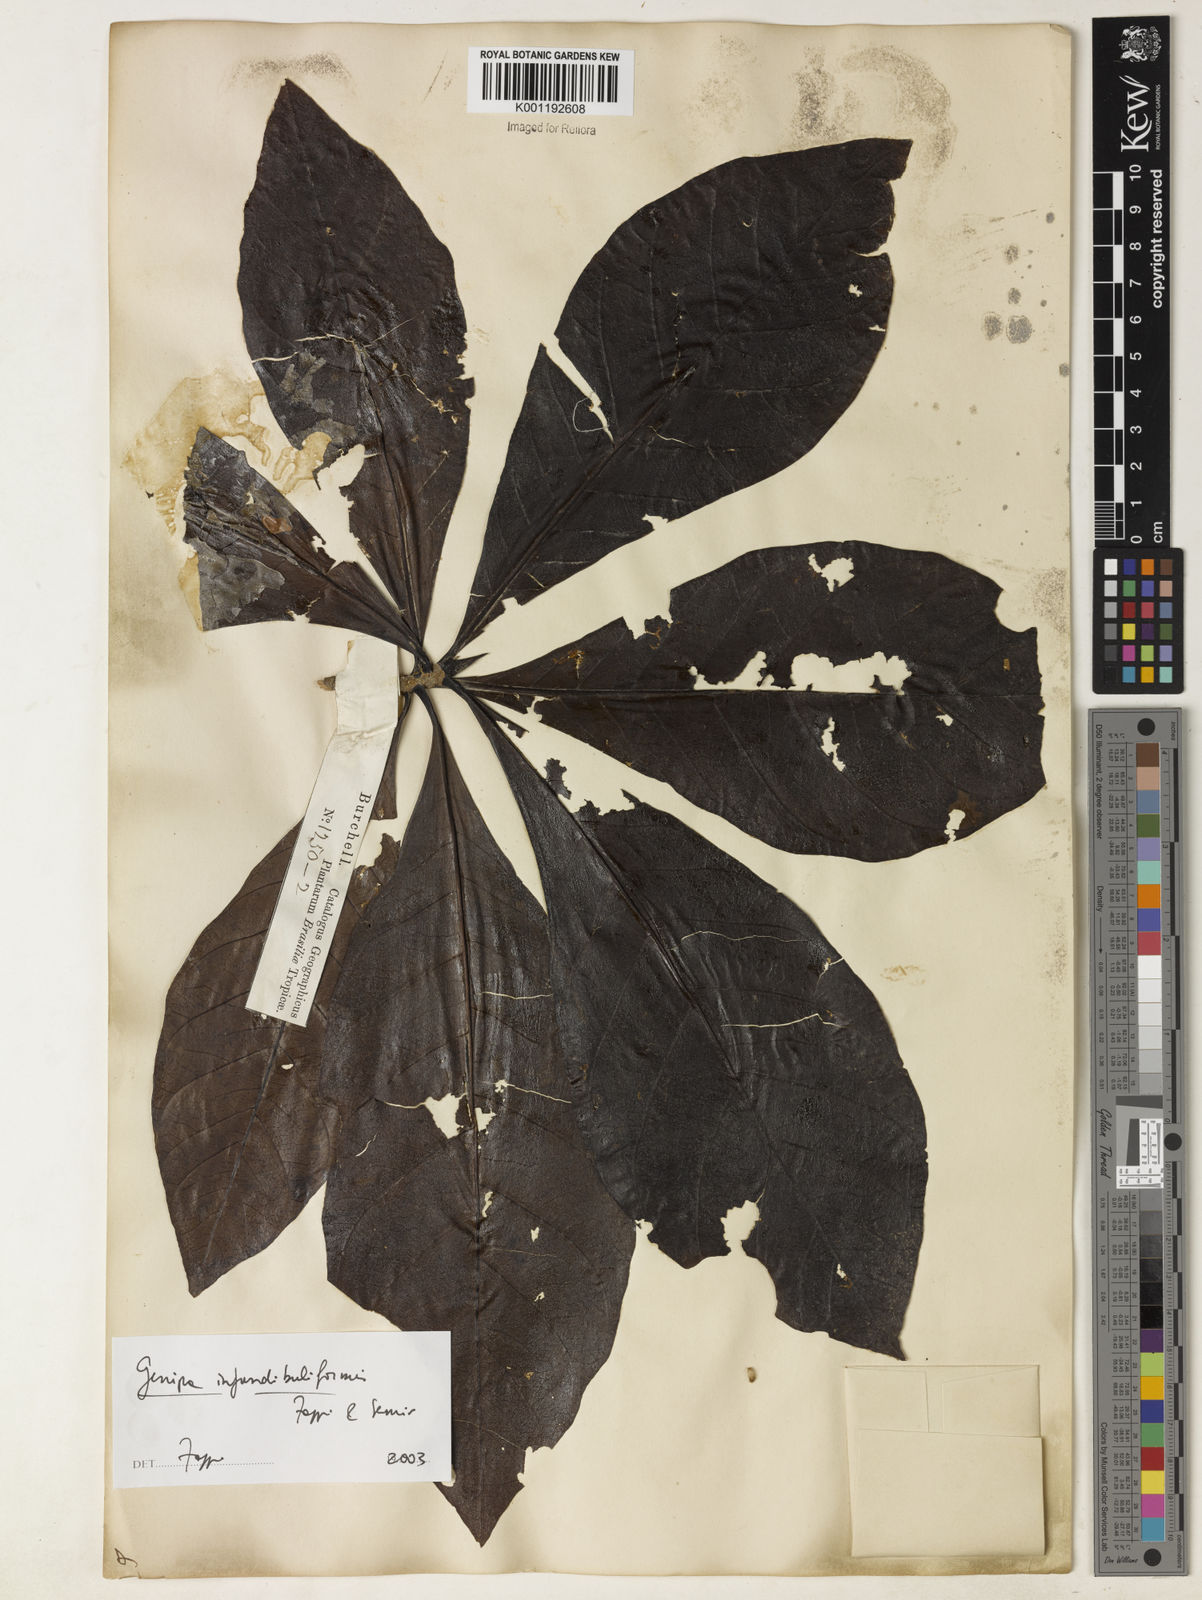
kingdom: Plantae
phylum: Tracheophyta
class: Magnoliopsida
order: Gentianales
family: Rubiaceae
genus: Genipa
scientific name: Genipa
